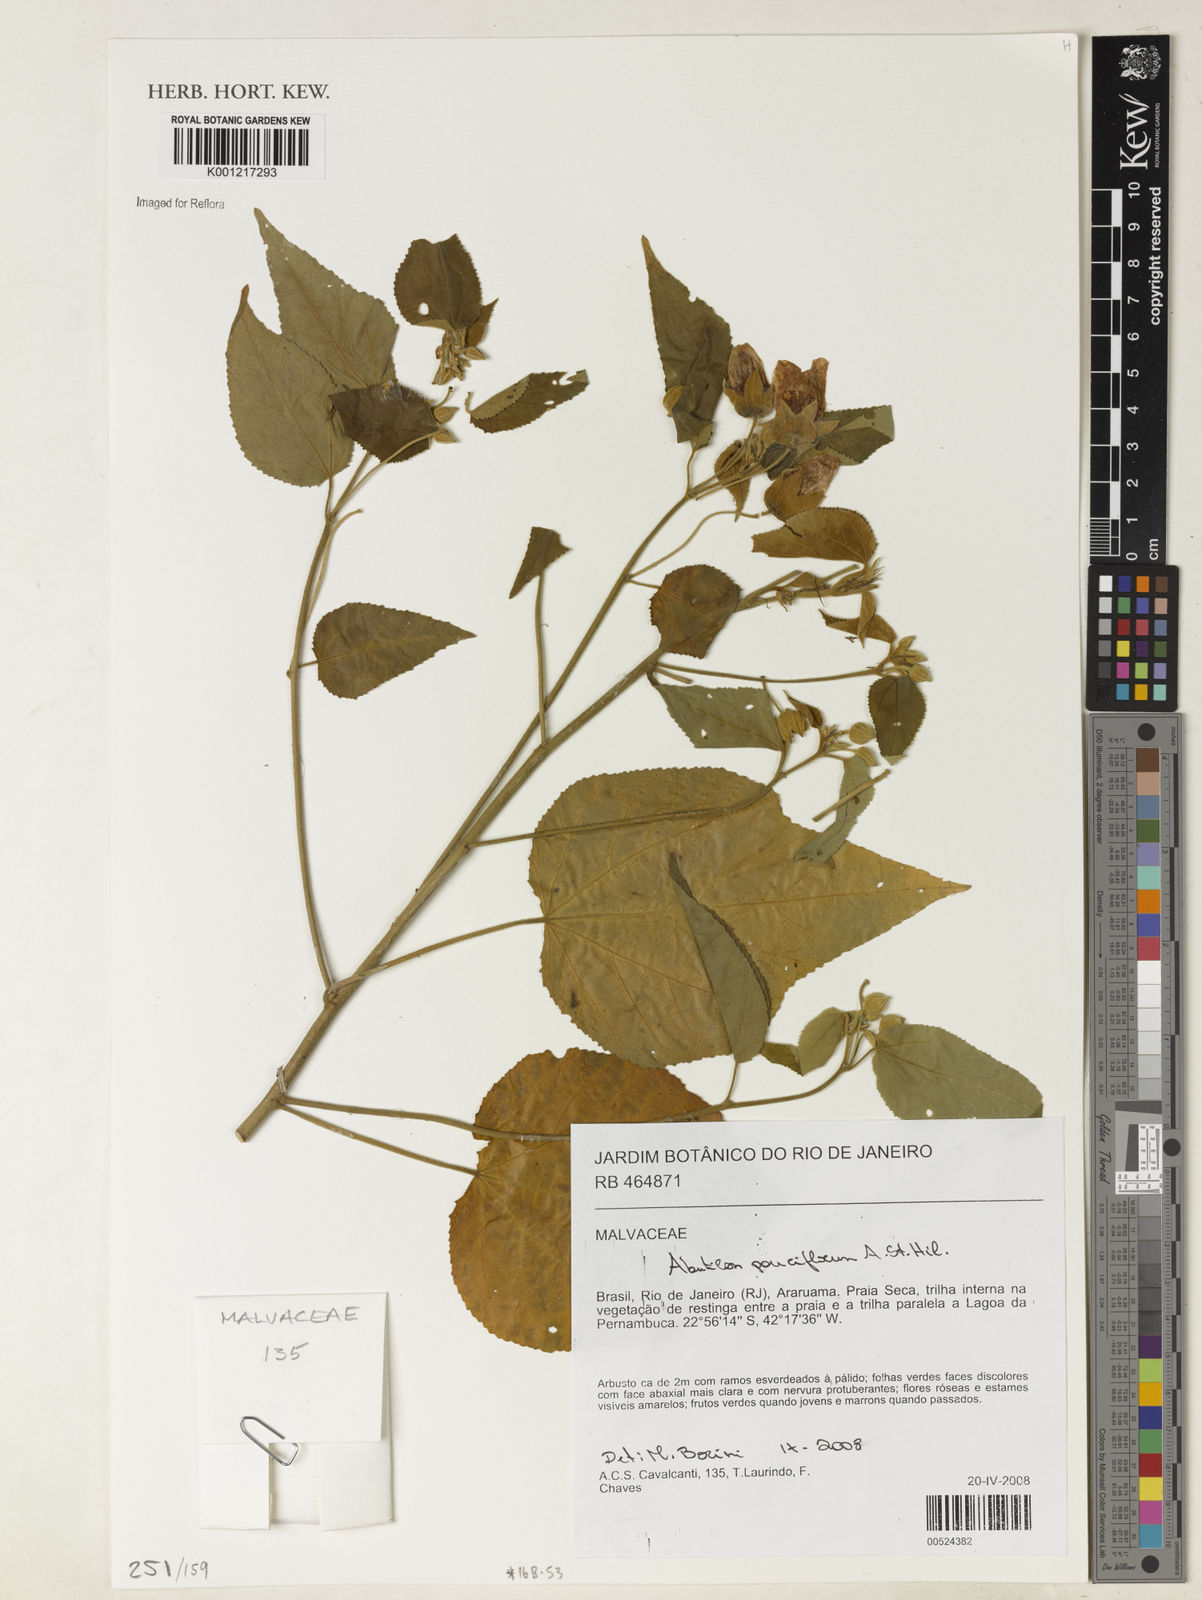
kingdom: Plantae
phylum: Tracheophyta
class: Magnoliopsida
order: Malvales
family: Malvaceae
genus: Callianthe
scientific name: Callianthe pauciflora
